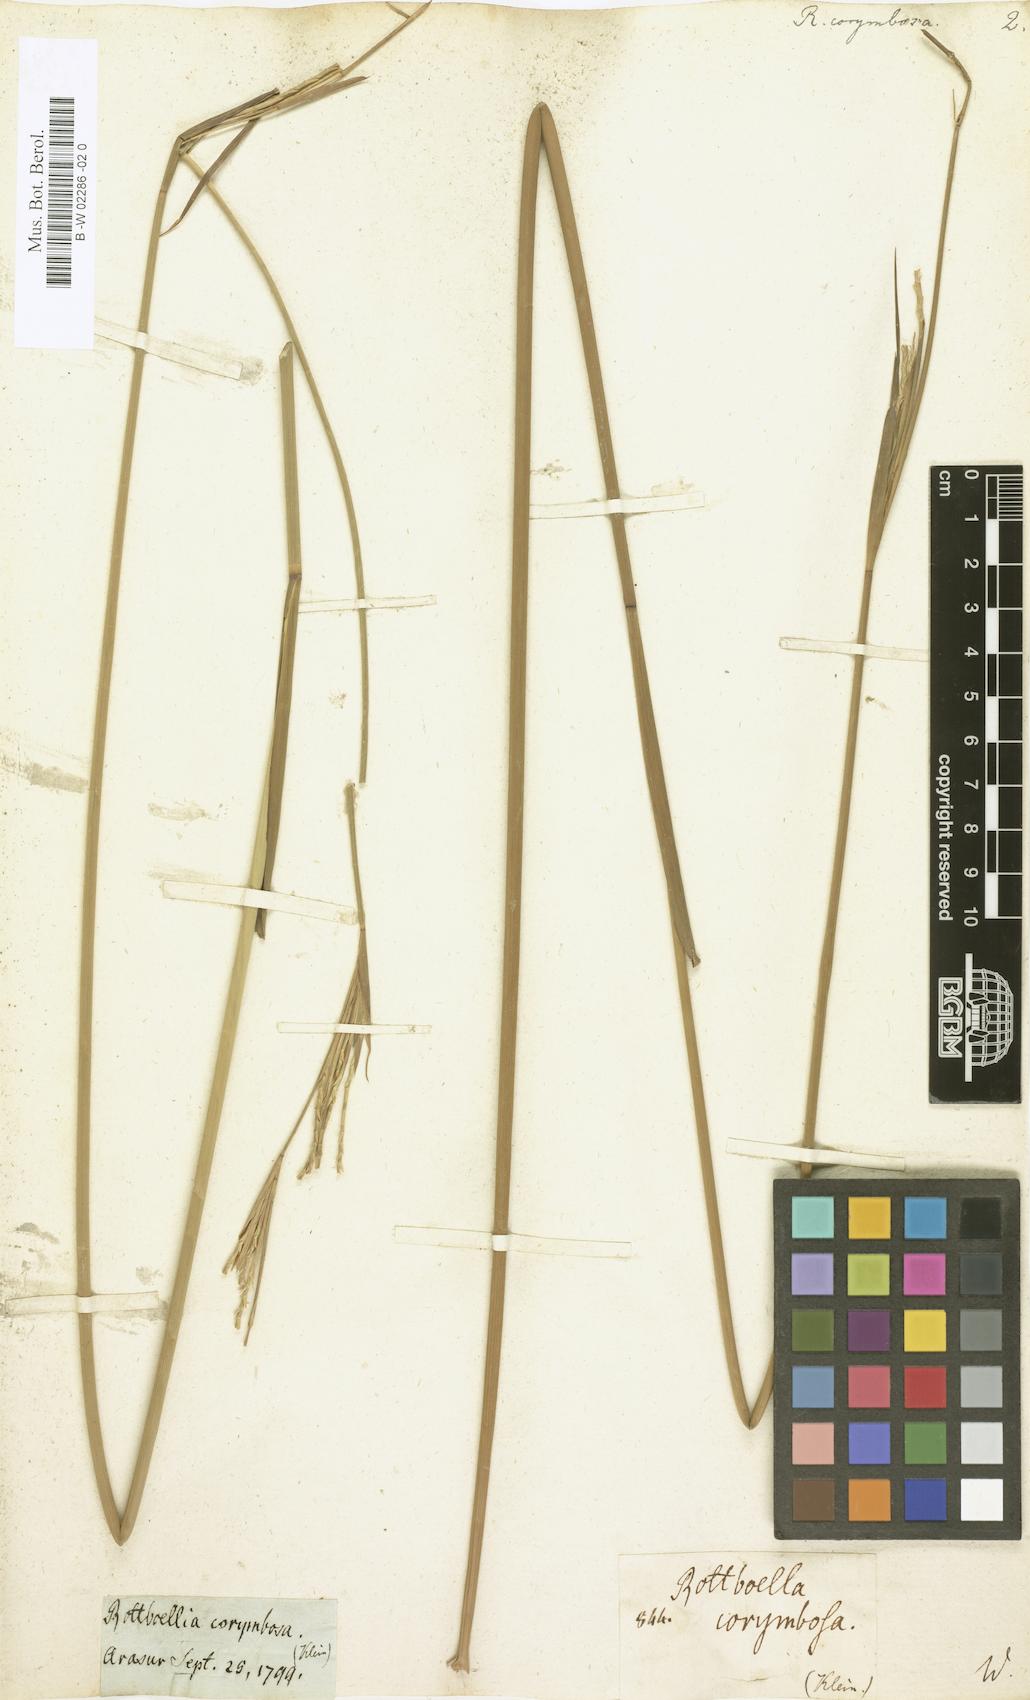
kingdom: Plantae
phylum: Tracheophyta
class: Liliopsida
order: Poales
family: Poaceae
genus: Ophiuros
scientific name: Ophiuros exaltatus
